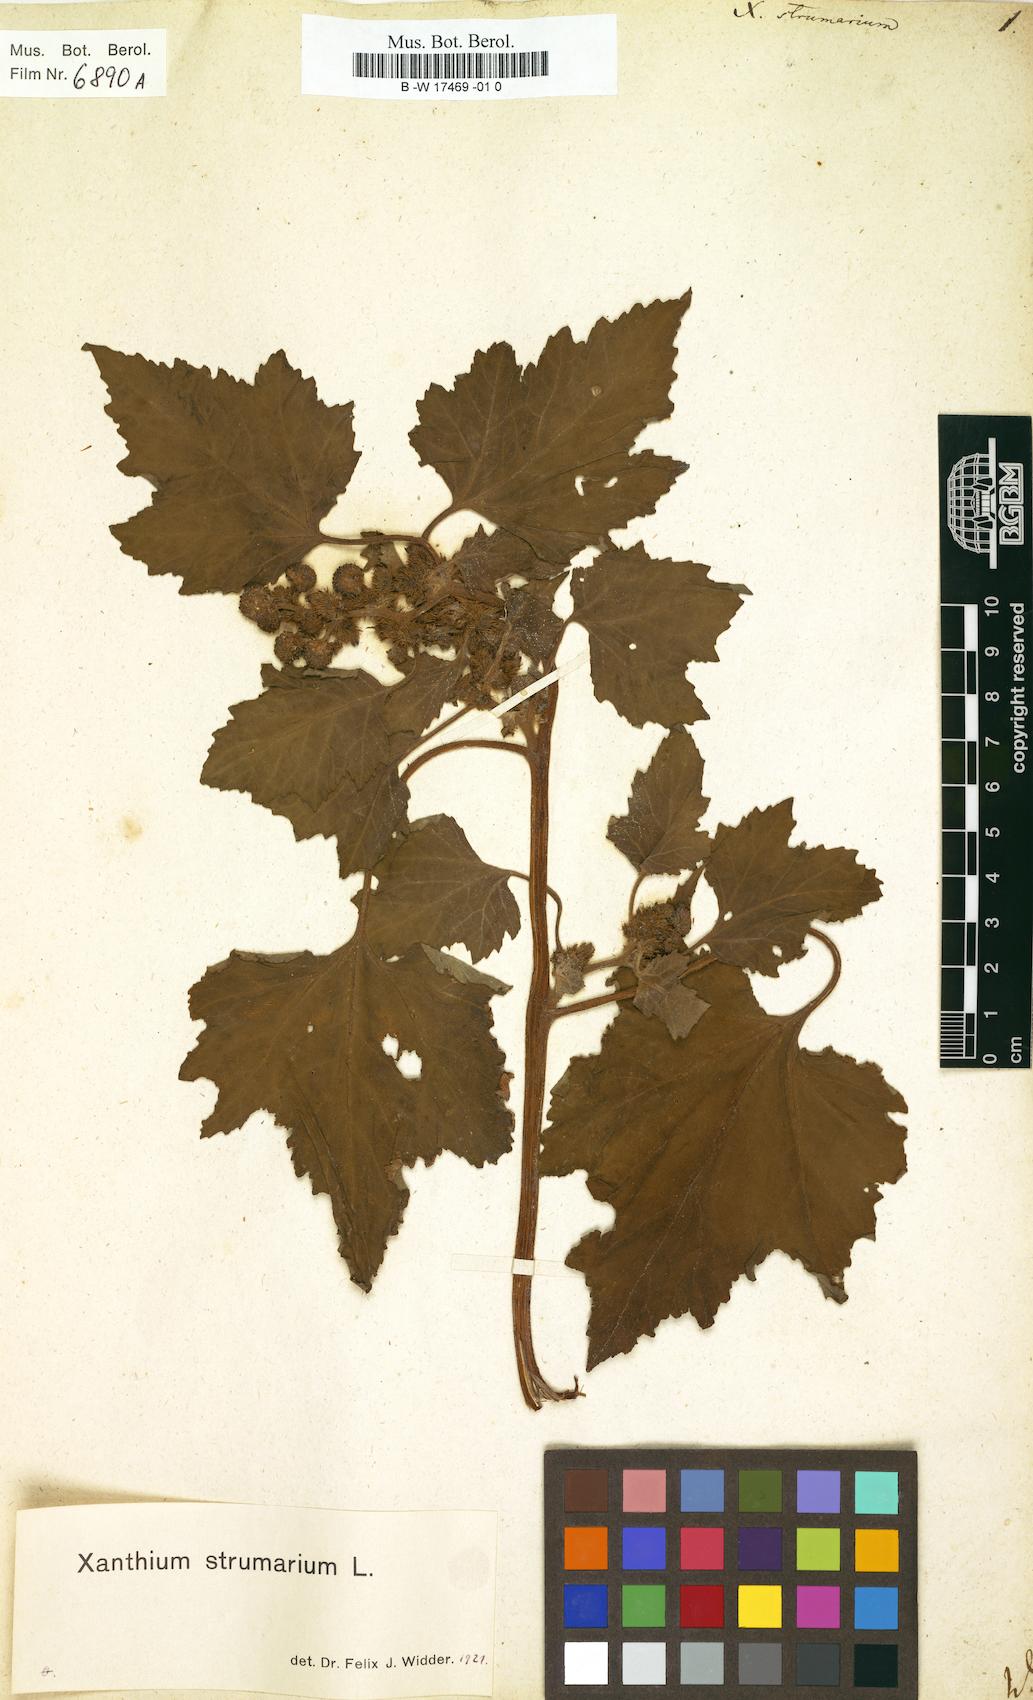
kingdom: Plantae
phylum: Tracheophyta
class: Magnoliopsida
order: Asterales
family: Asteraceae
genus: Xanthium
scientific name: Xanthium strumarium
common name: Rough cocklebur
